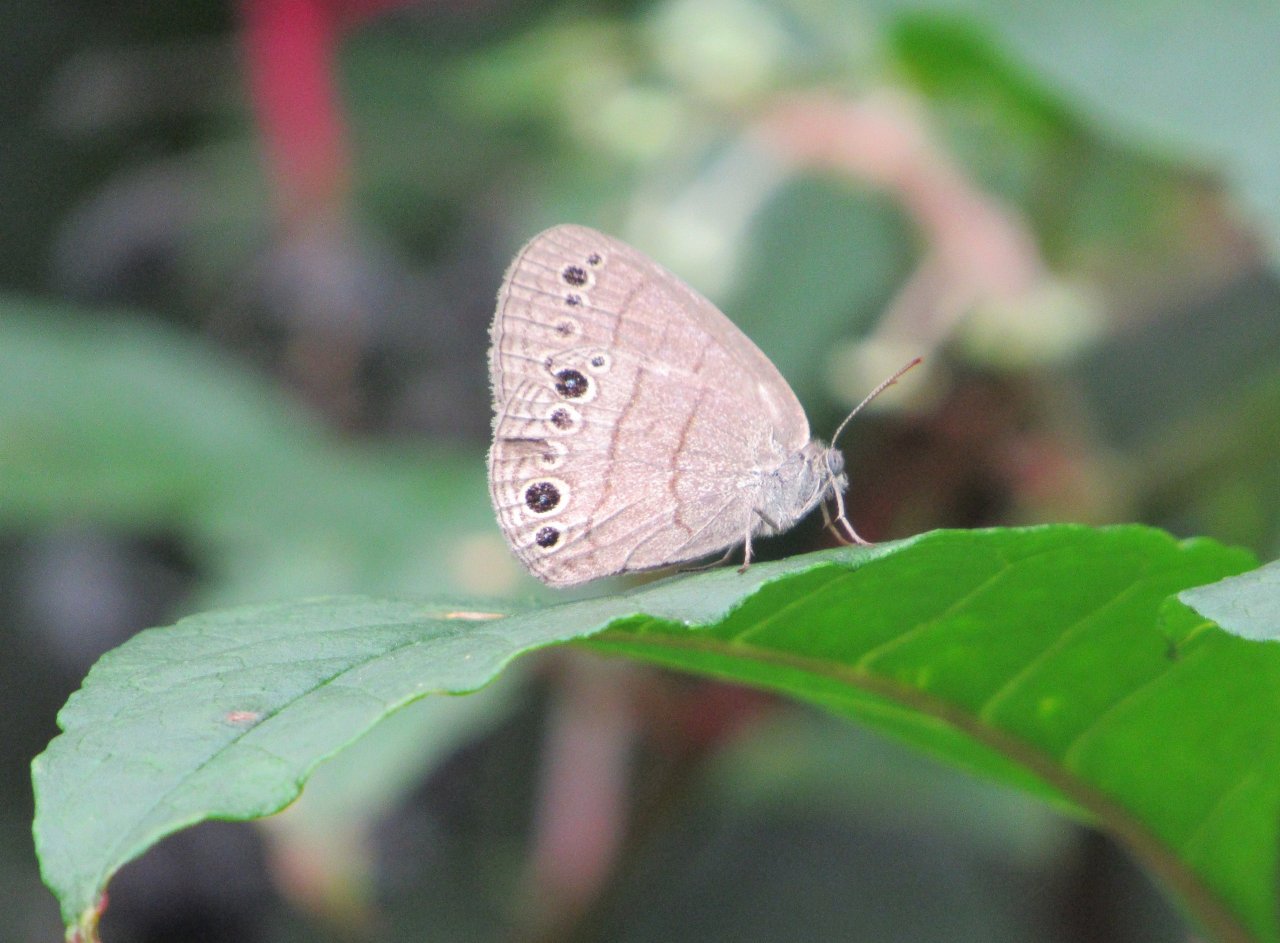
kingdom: Animalia
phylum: Arthropoda
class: Insecta
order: Lepidoptera
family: Nymphalidae
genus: Hermeuptychia
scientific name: Hermeuptychia hermes
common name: Carolina Satyr
